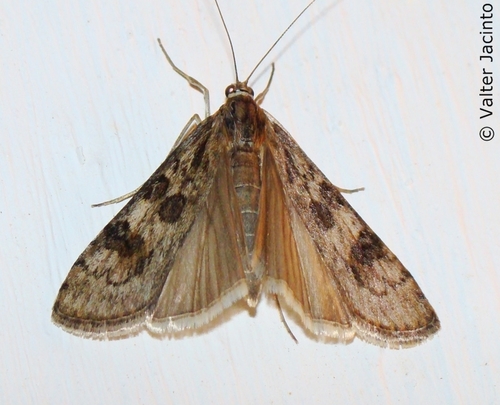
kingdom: Animalia
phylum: Arthropoda
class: Insecta
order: Lepidoptera
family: Crambidae
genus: Nomophila
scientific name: Nomophila noctuella
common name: Rush veneer
